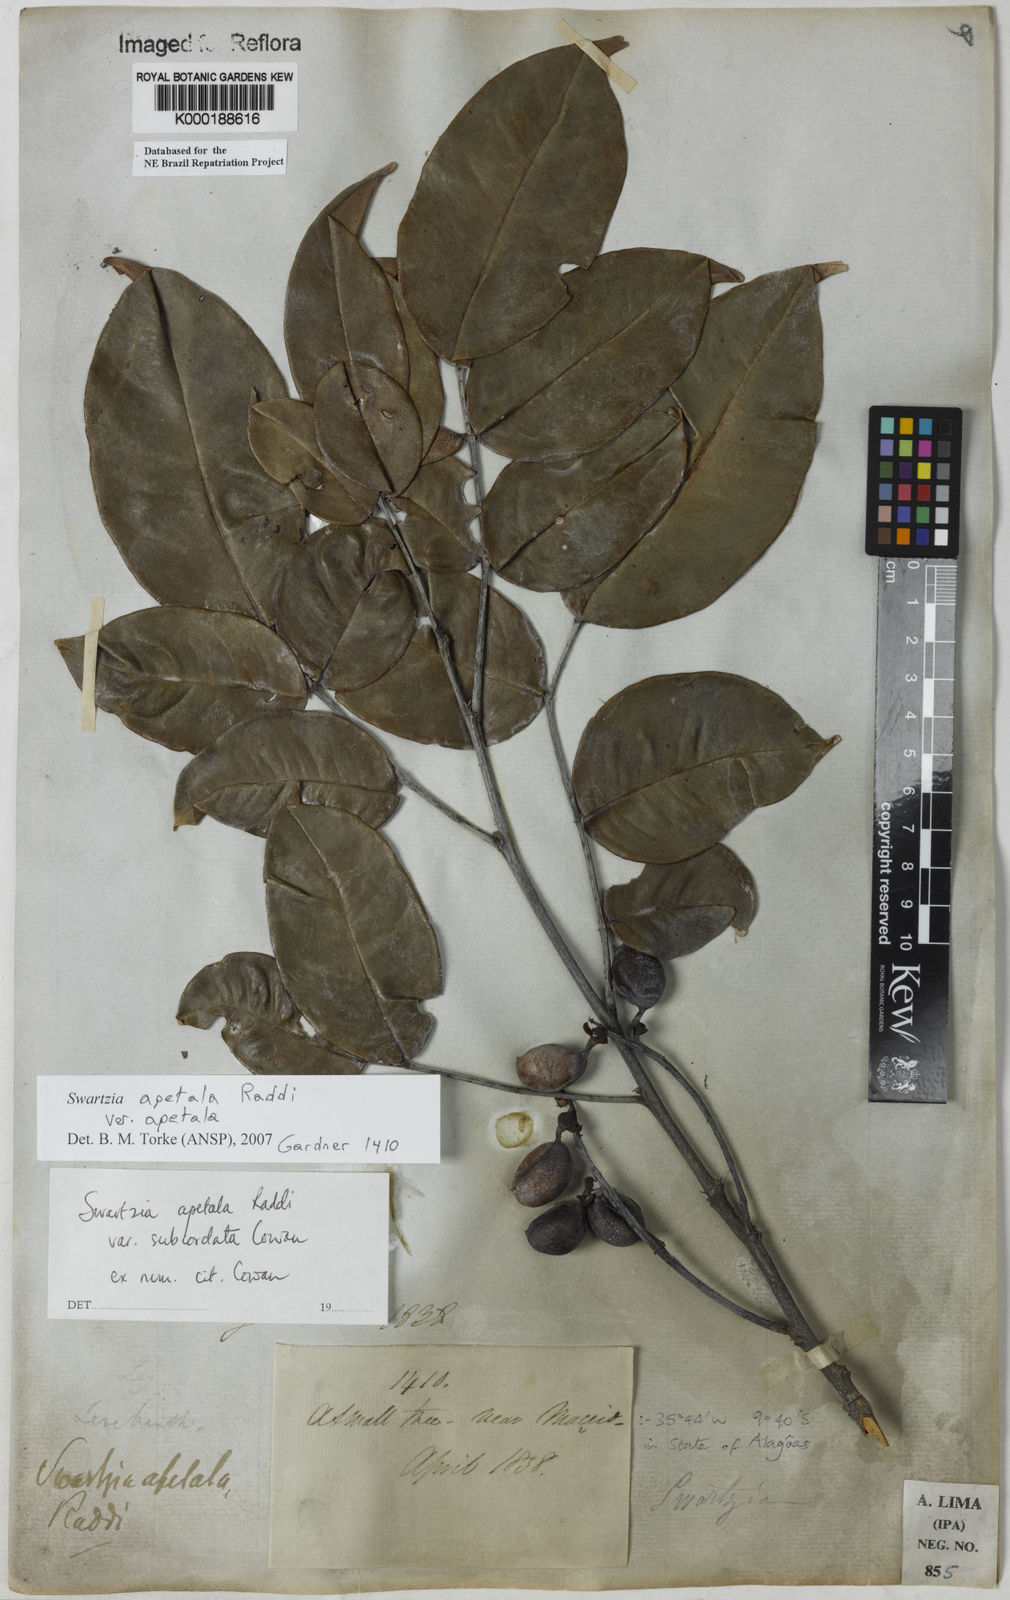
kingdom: Plantae
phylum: Tracheophyta
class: Magnoliopsida
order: Fabales
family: Fabaceae
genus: Swartzia
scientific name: Swartzia apetala
